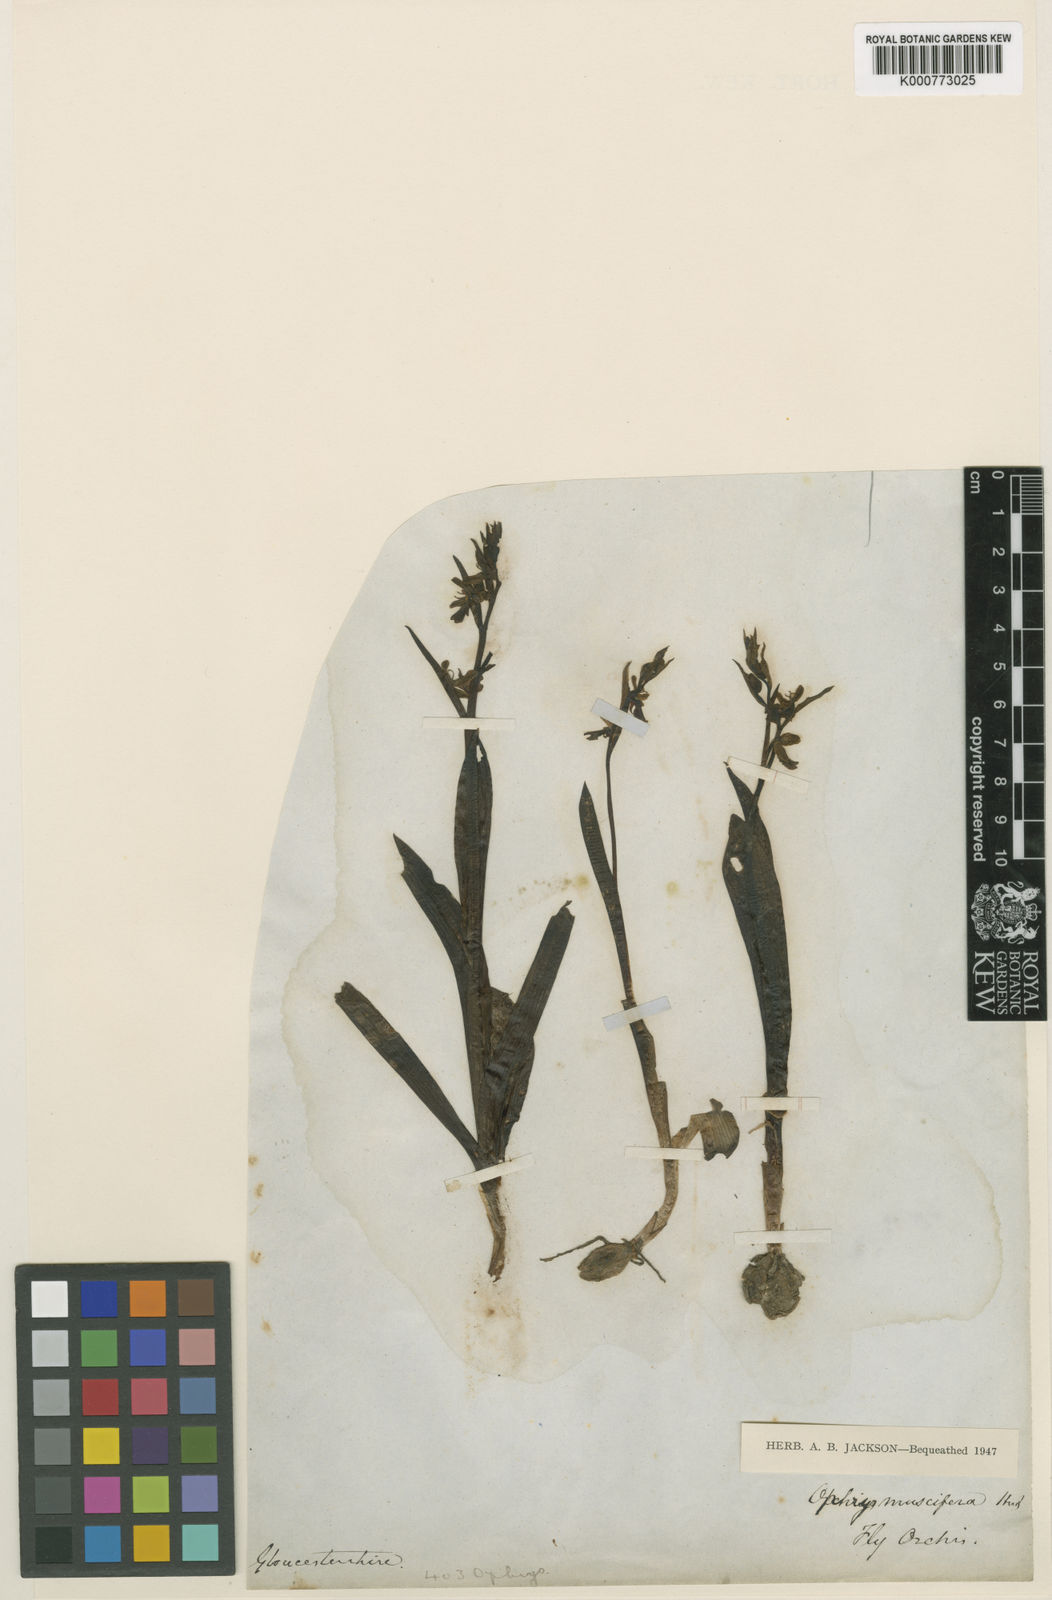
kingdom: Plantae
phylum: Tracheophyta
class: Liliopsida
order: Asparagales
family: Orchidaceae
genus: Ophrys
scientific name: Ophrys insectifera
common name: Fly orchid
